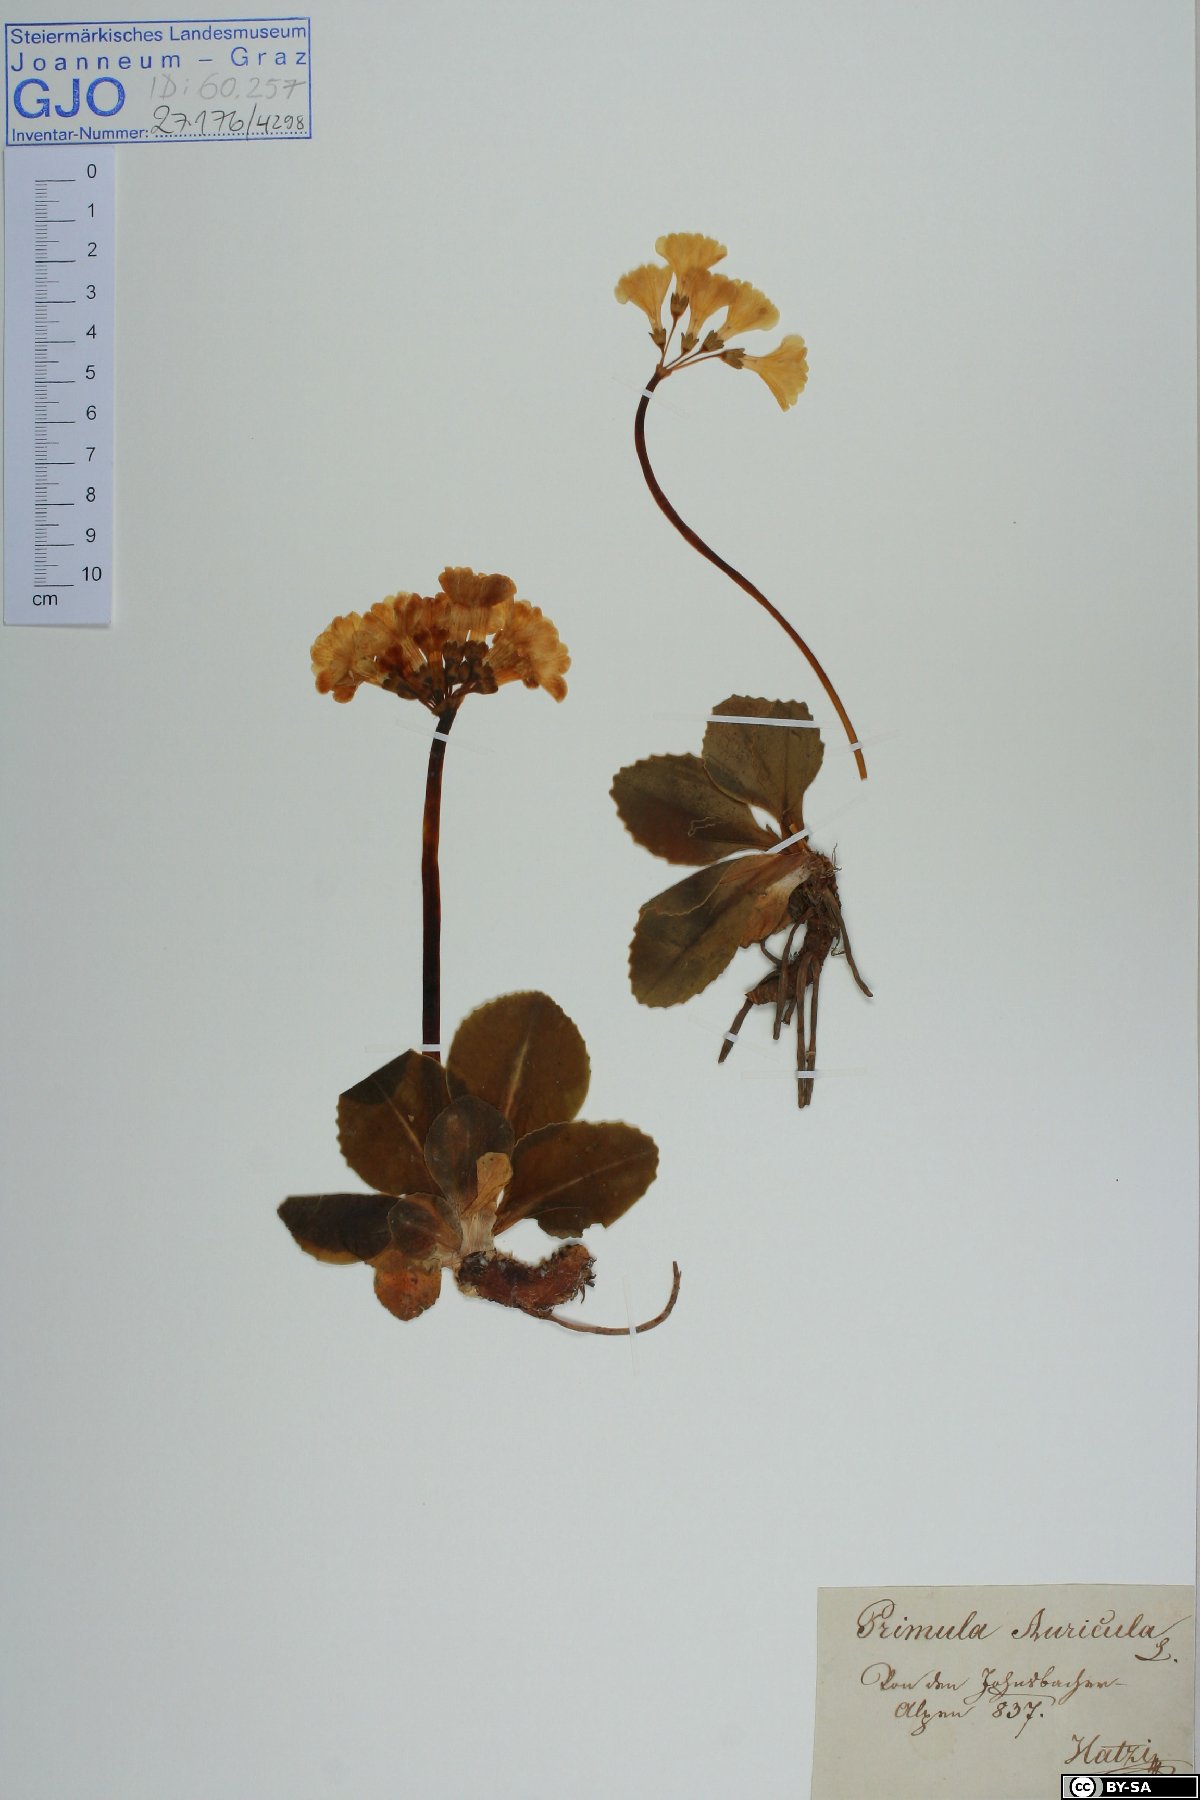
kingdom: Plantae
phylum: Tracheophyta
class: Magnoliopsida
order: Ericales
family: Primulaceae
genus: Primula
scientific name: Primula auricula
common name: Auricula
